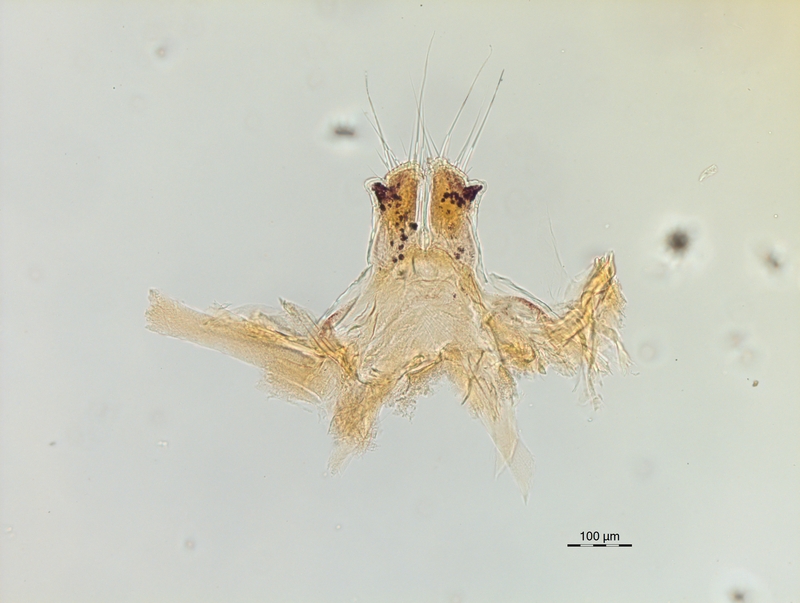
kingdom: Animalia
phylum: Arthropoda
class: Diplopoda
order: Chordeumatida
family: Chordeumatidae
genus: Melogona
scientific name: Melogona broelemanni
